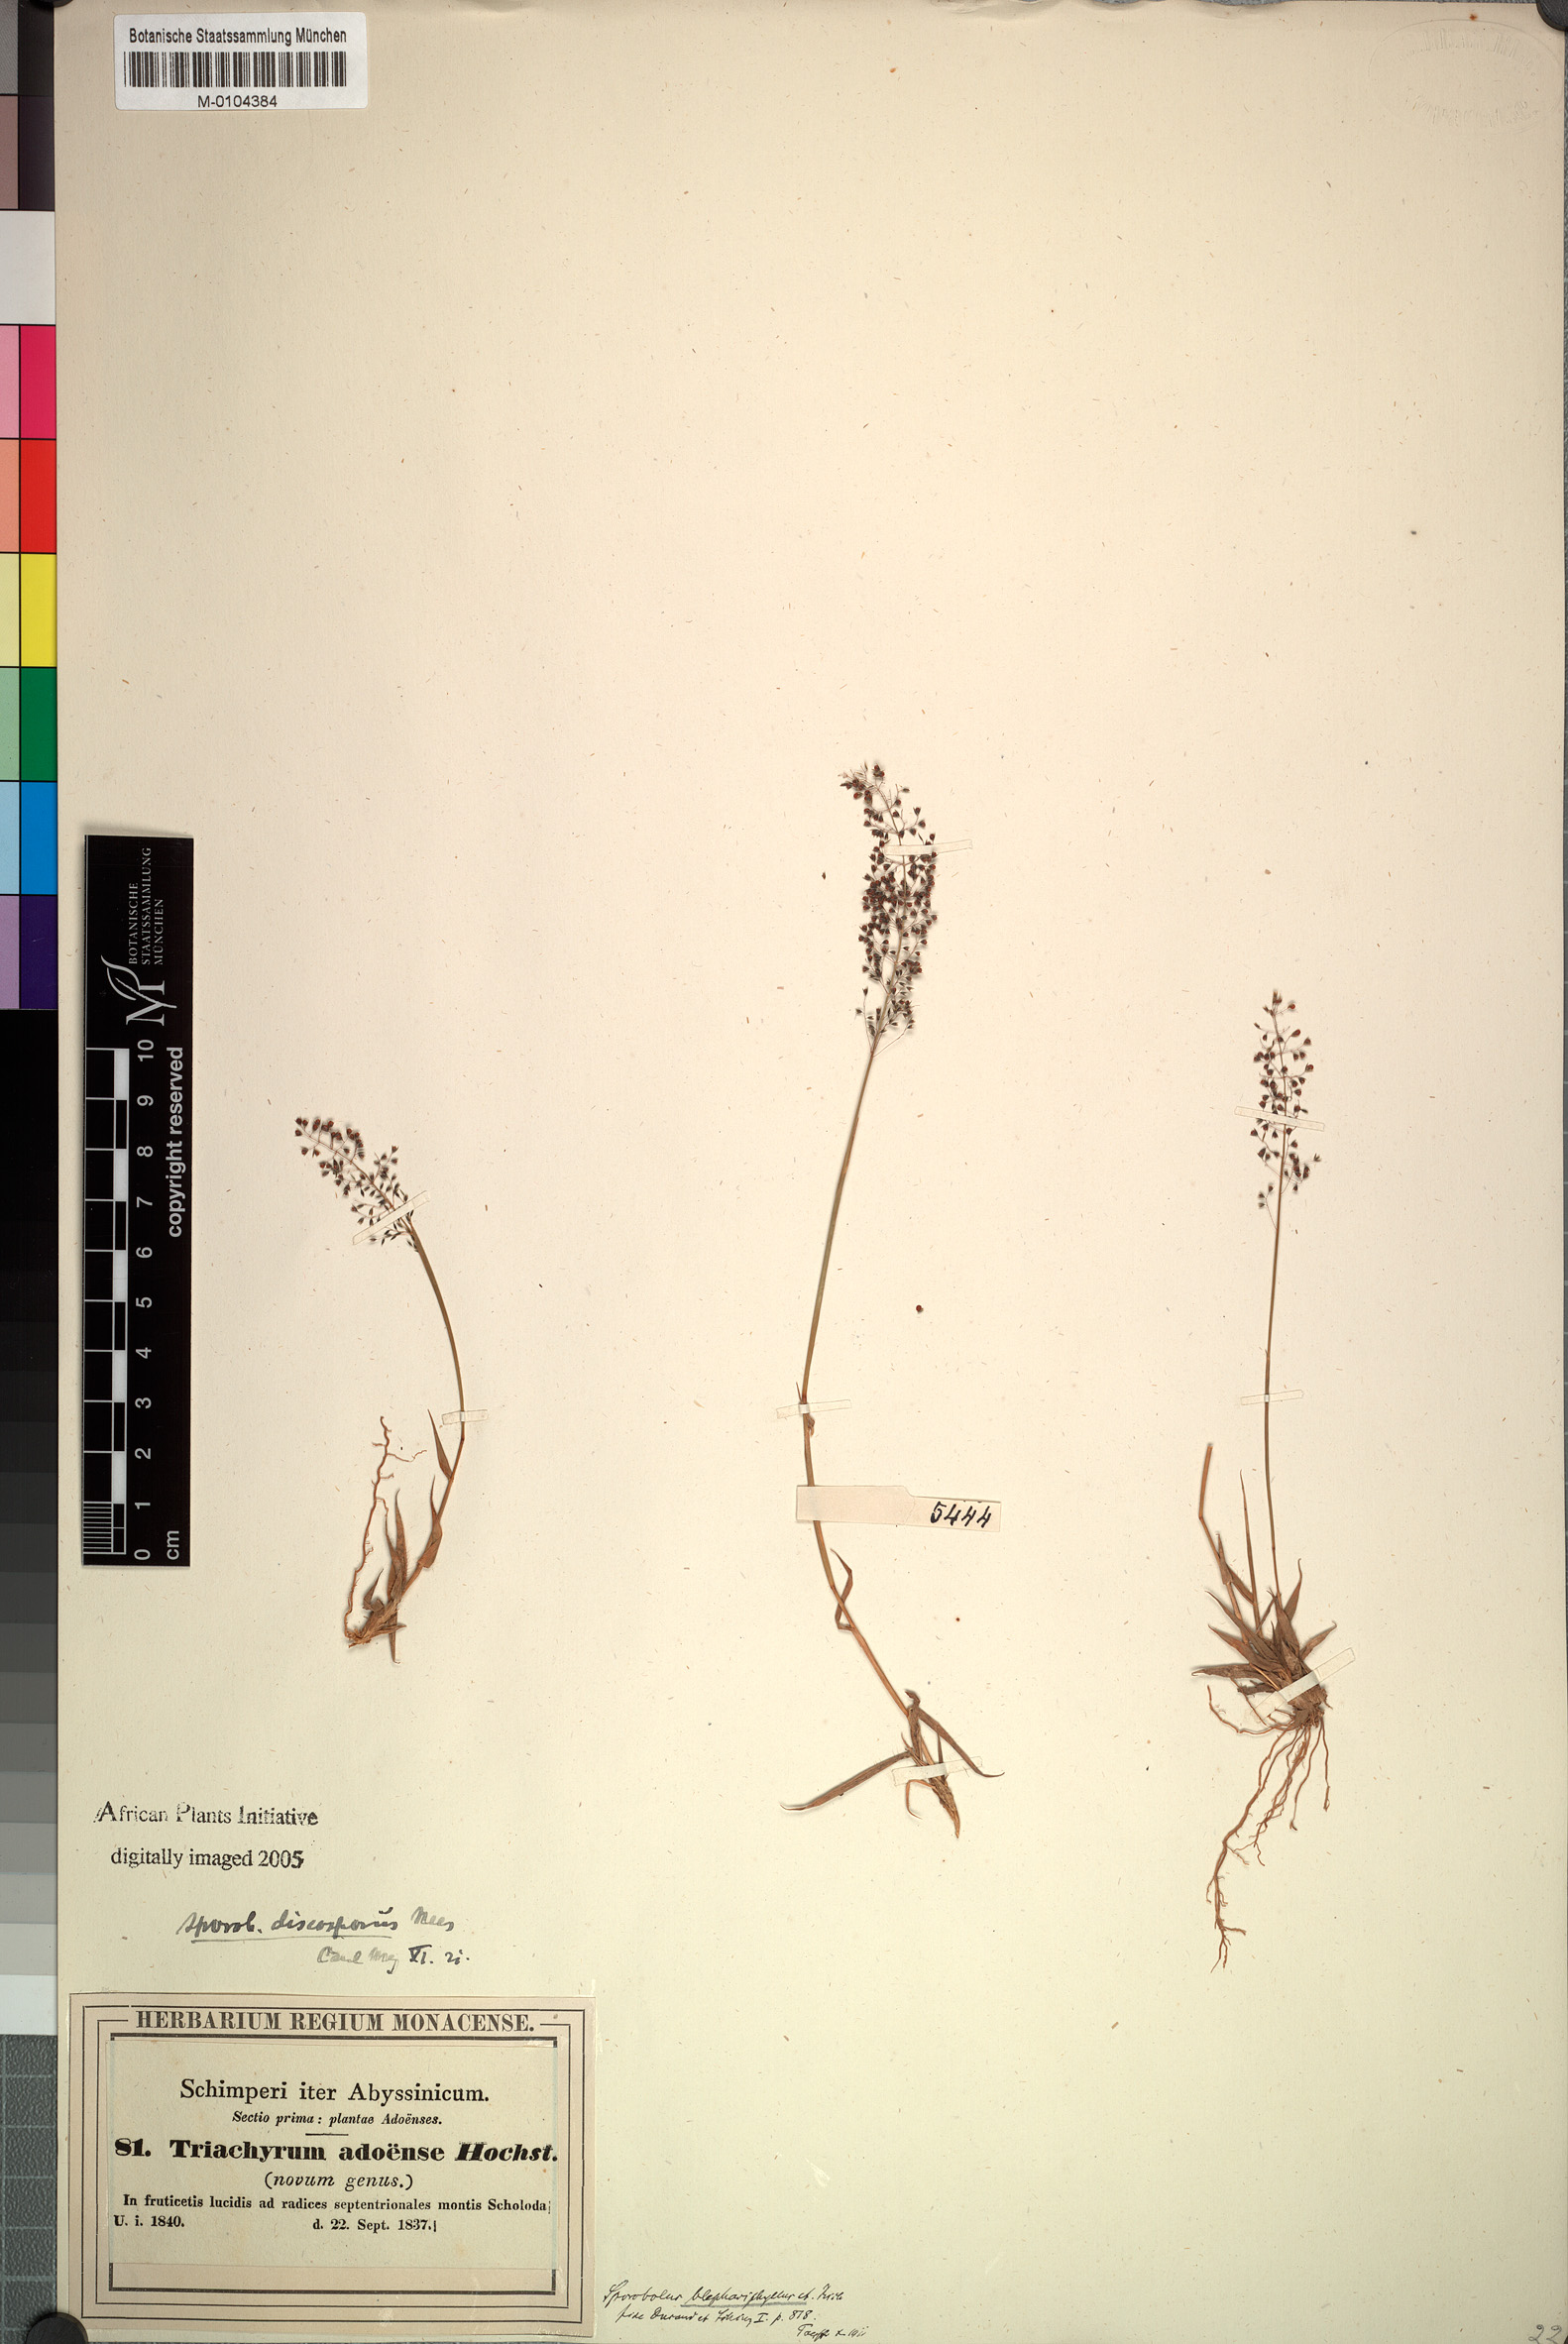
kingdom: Plantae
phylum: Tracheophyta
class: Liliopsida
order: Poales
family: Poaceae
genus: Sporobolus
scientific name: Sporobolus discosporus
